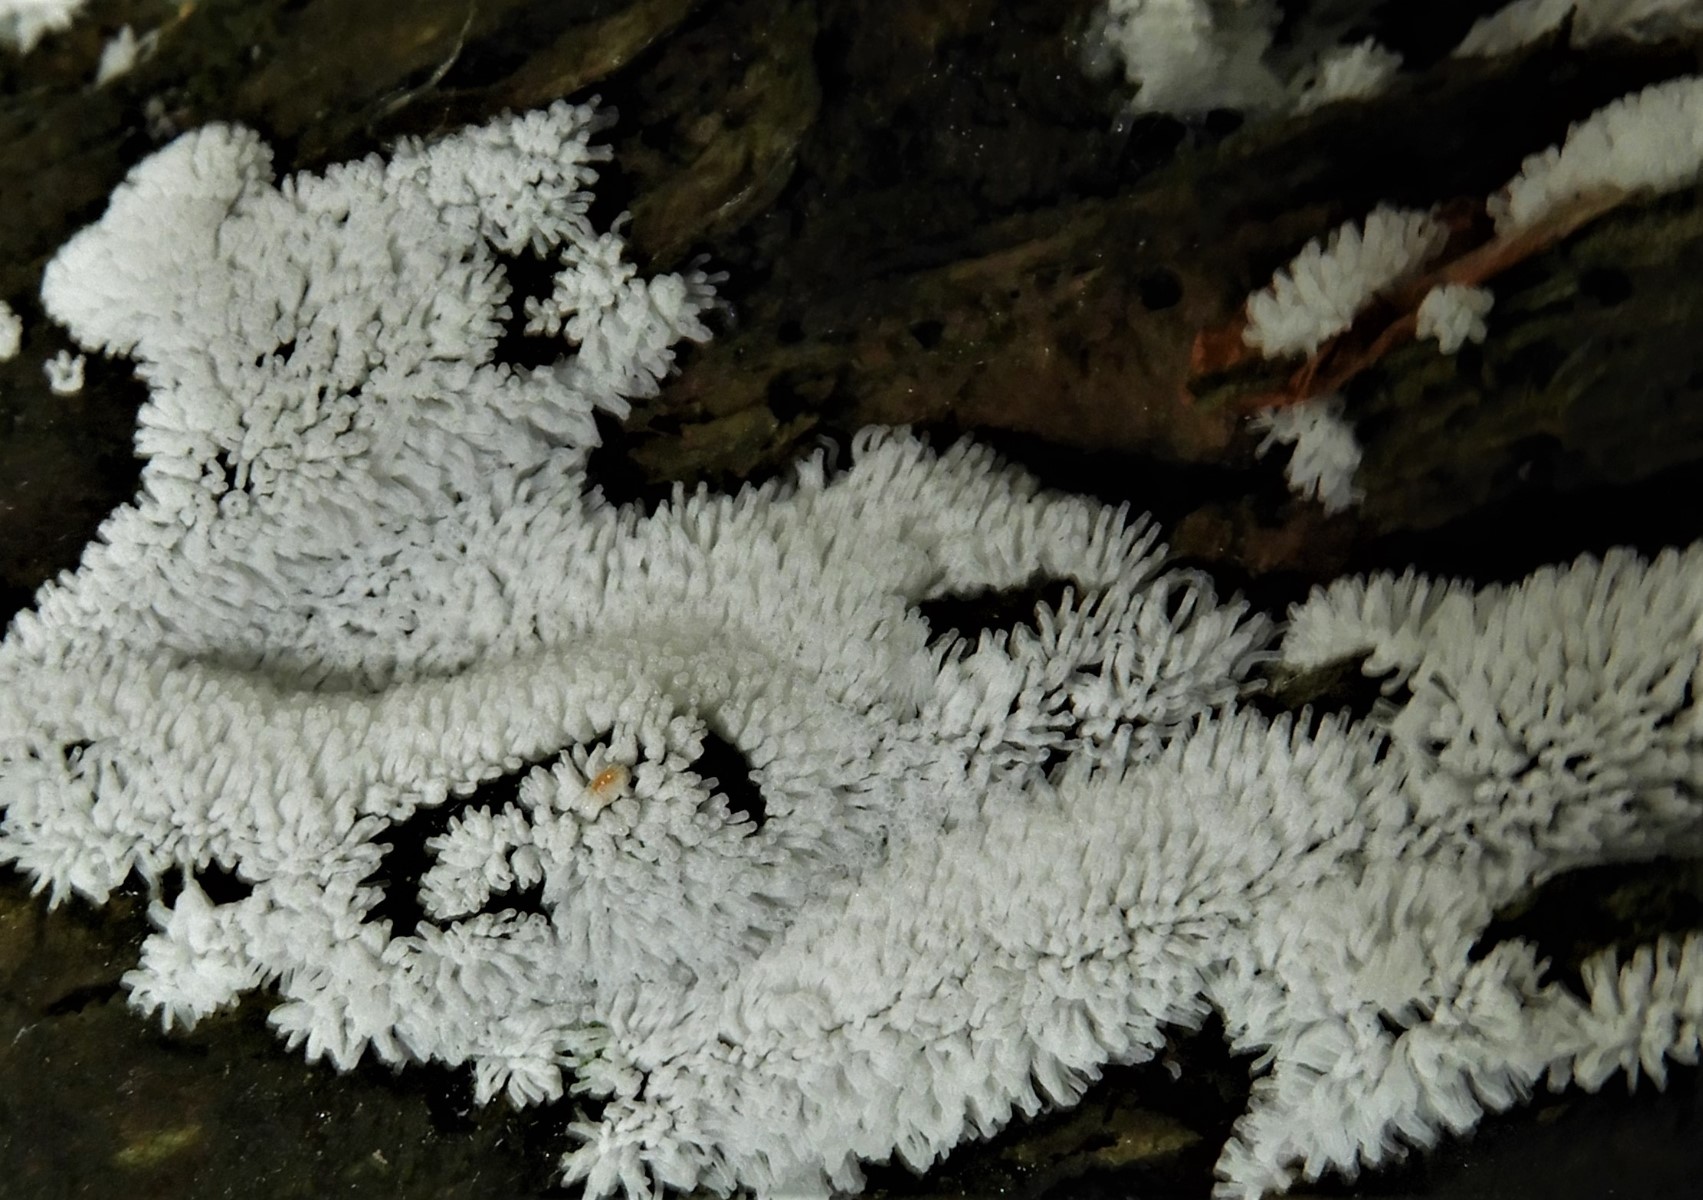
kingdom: Protozoa
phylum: Mycetozoa
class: Protosteliomycetes
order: Ceratiomyxales
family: Ceratiomyxaceae
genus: Ceratiomyxa
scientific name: Ceratiomyxa fruticulosa
